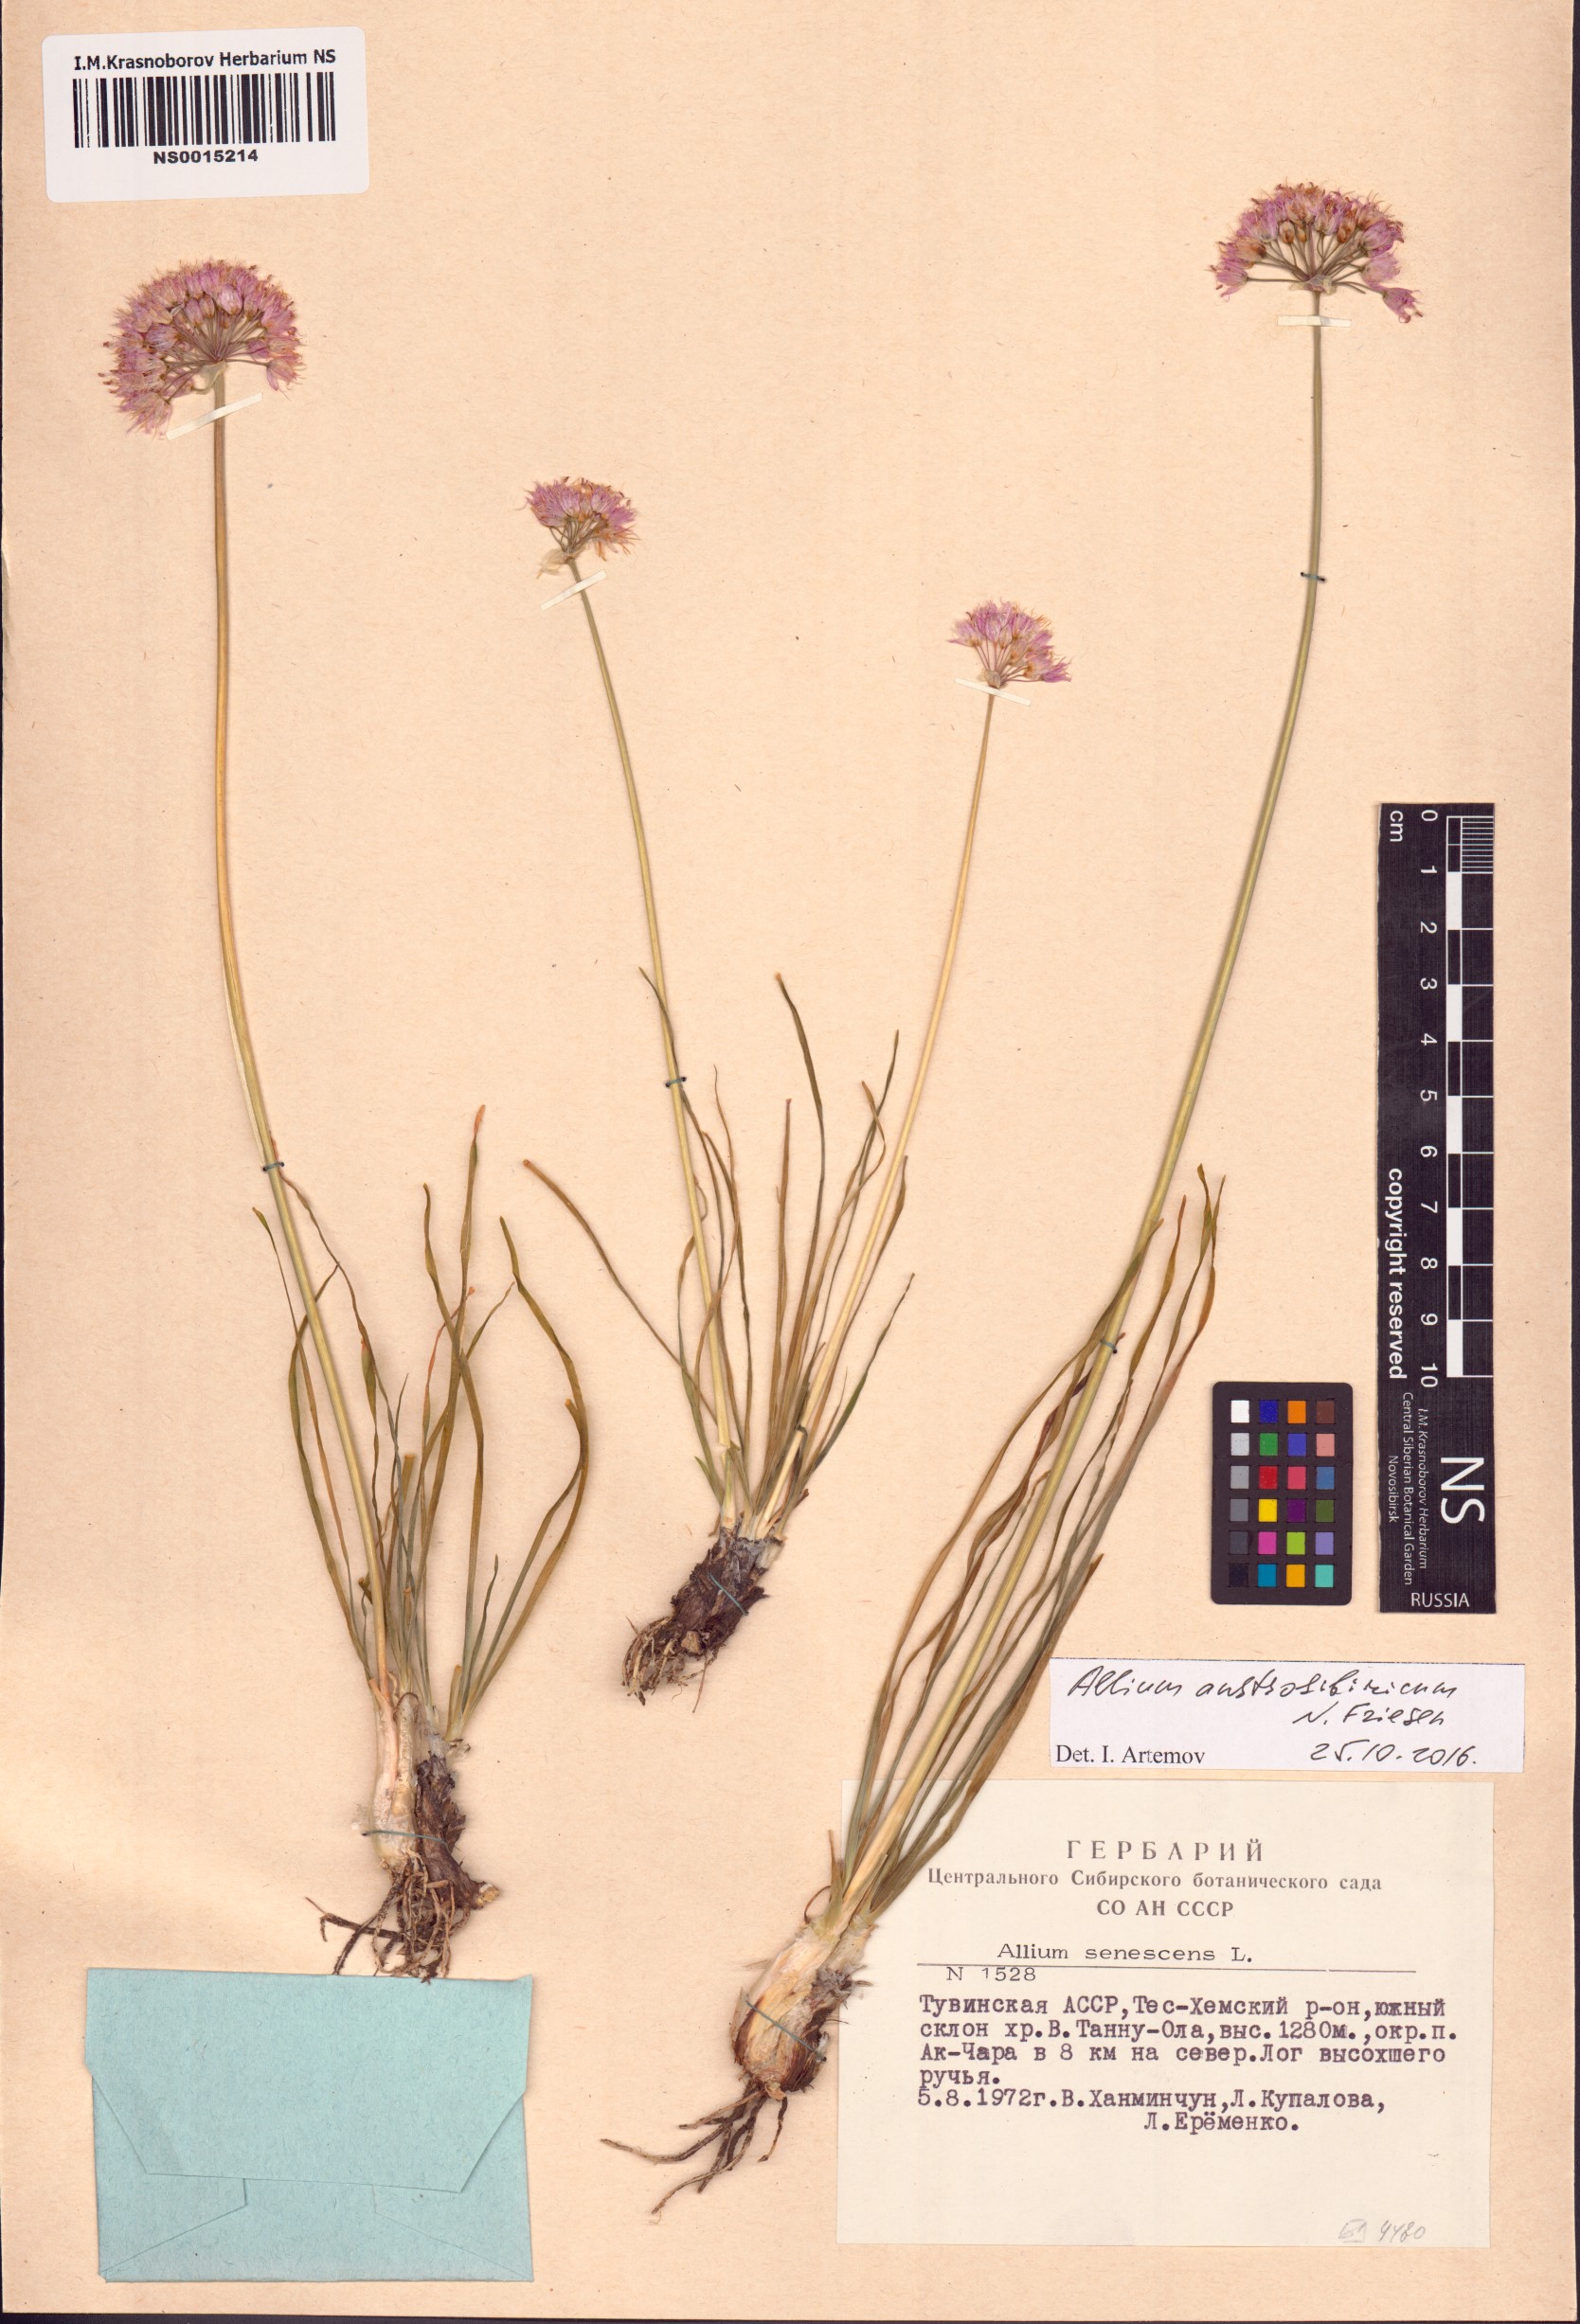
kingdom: Plantae
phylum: Tracheophyta
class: Liliopsida
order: Asparagales
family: Amaryllidaceae
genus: Allium
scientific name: Allium austrosibiricum
